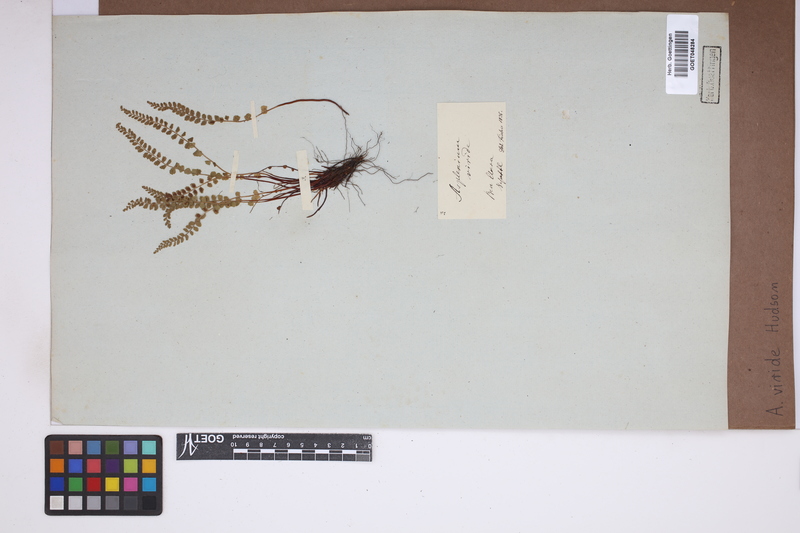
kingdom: Plantae
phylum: Tracheophyta
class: Polypodiopsida
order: Polypodiales
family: Aspleniaceae
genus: Asplenium
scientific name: Asplenium viride
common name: Green spleenwort
